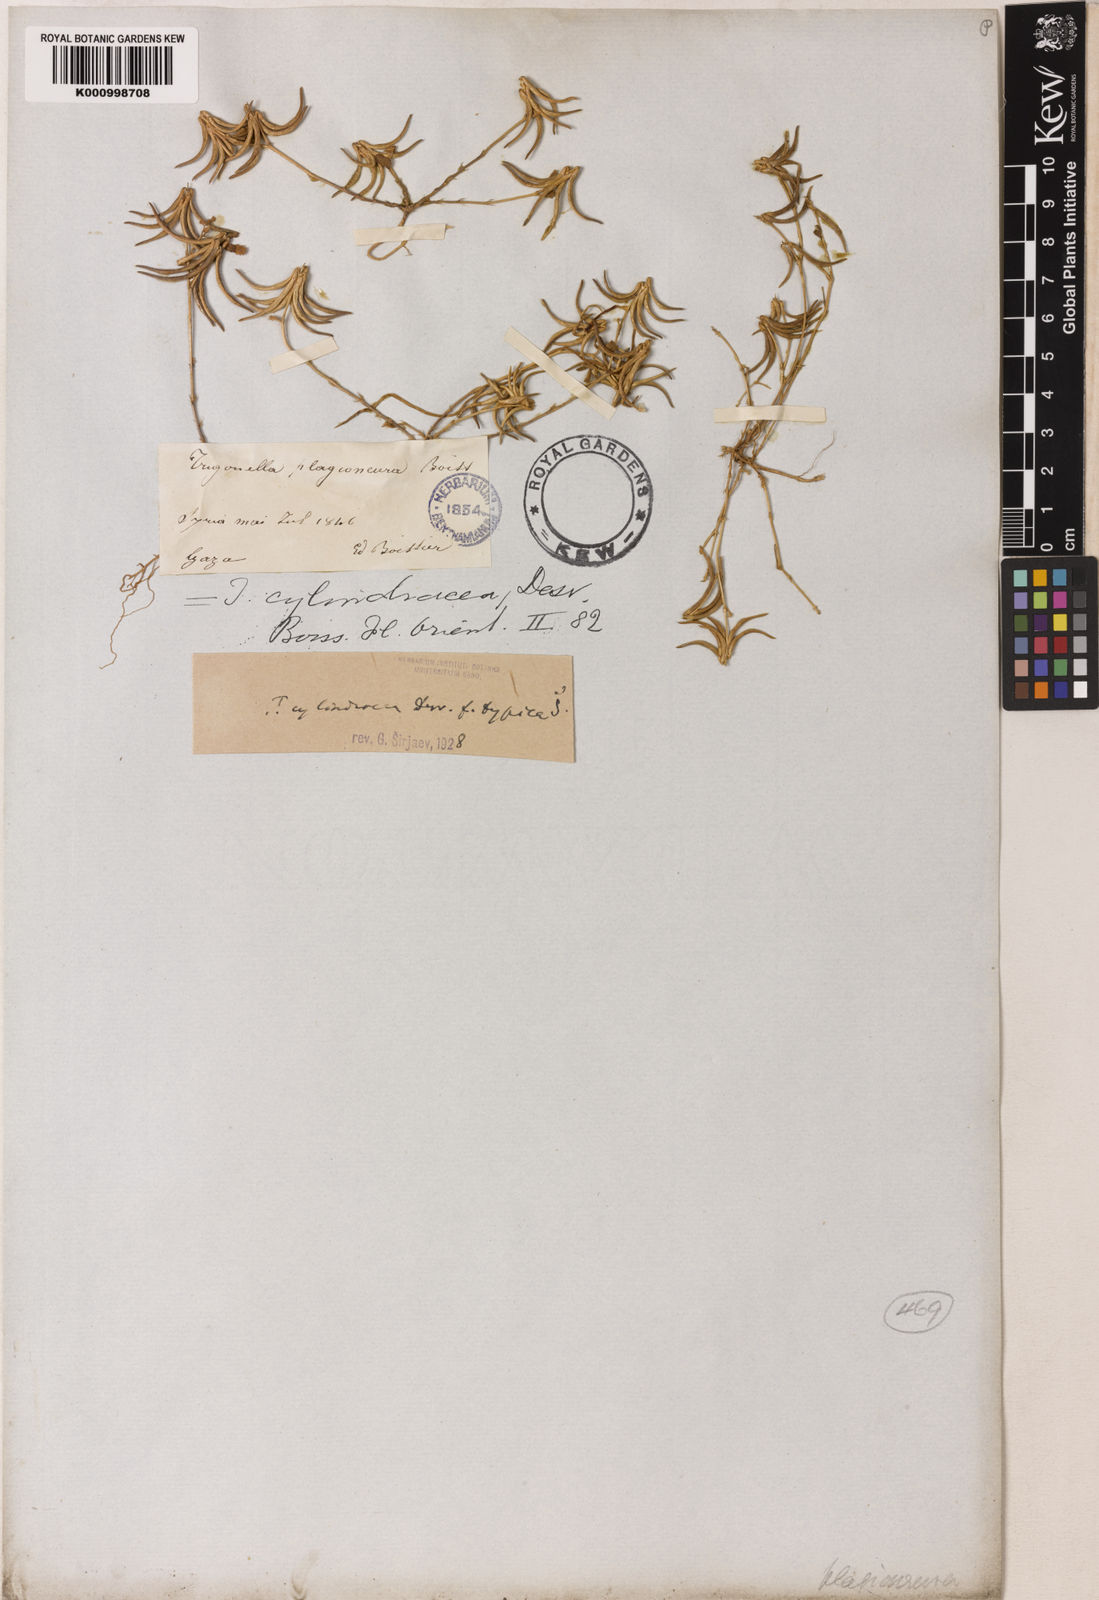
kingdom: Plantae
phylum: Tracheophyta
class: Magnoliopsida
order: Fabales
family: Fabaceae
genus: Trigonella
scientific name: Trigonella cylindracea
